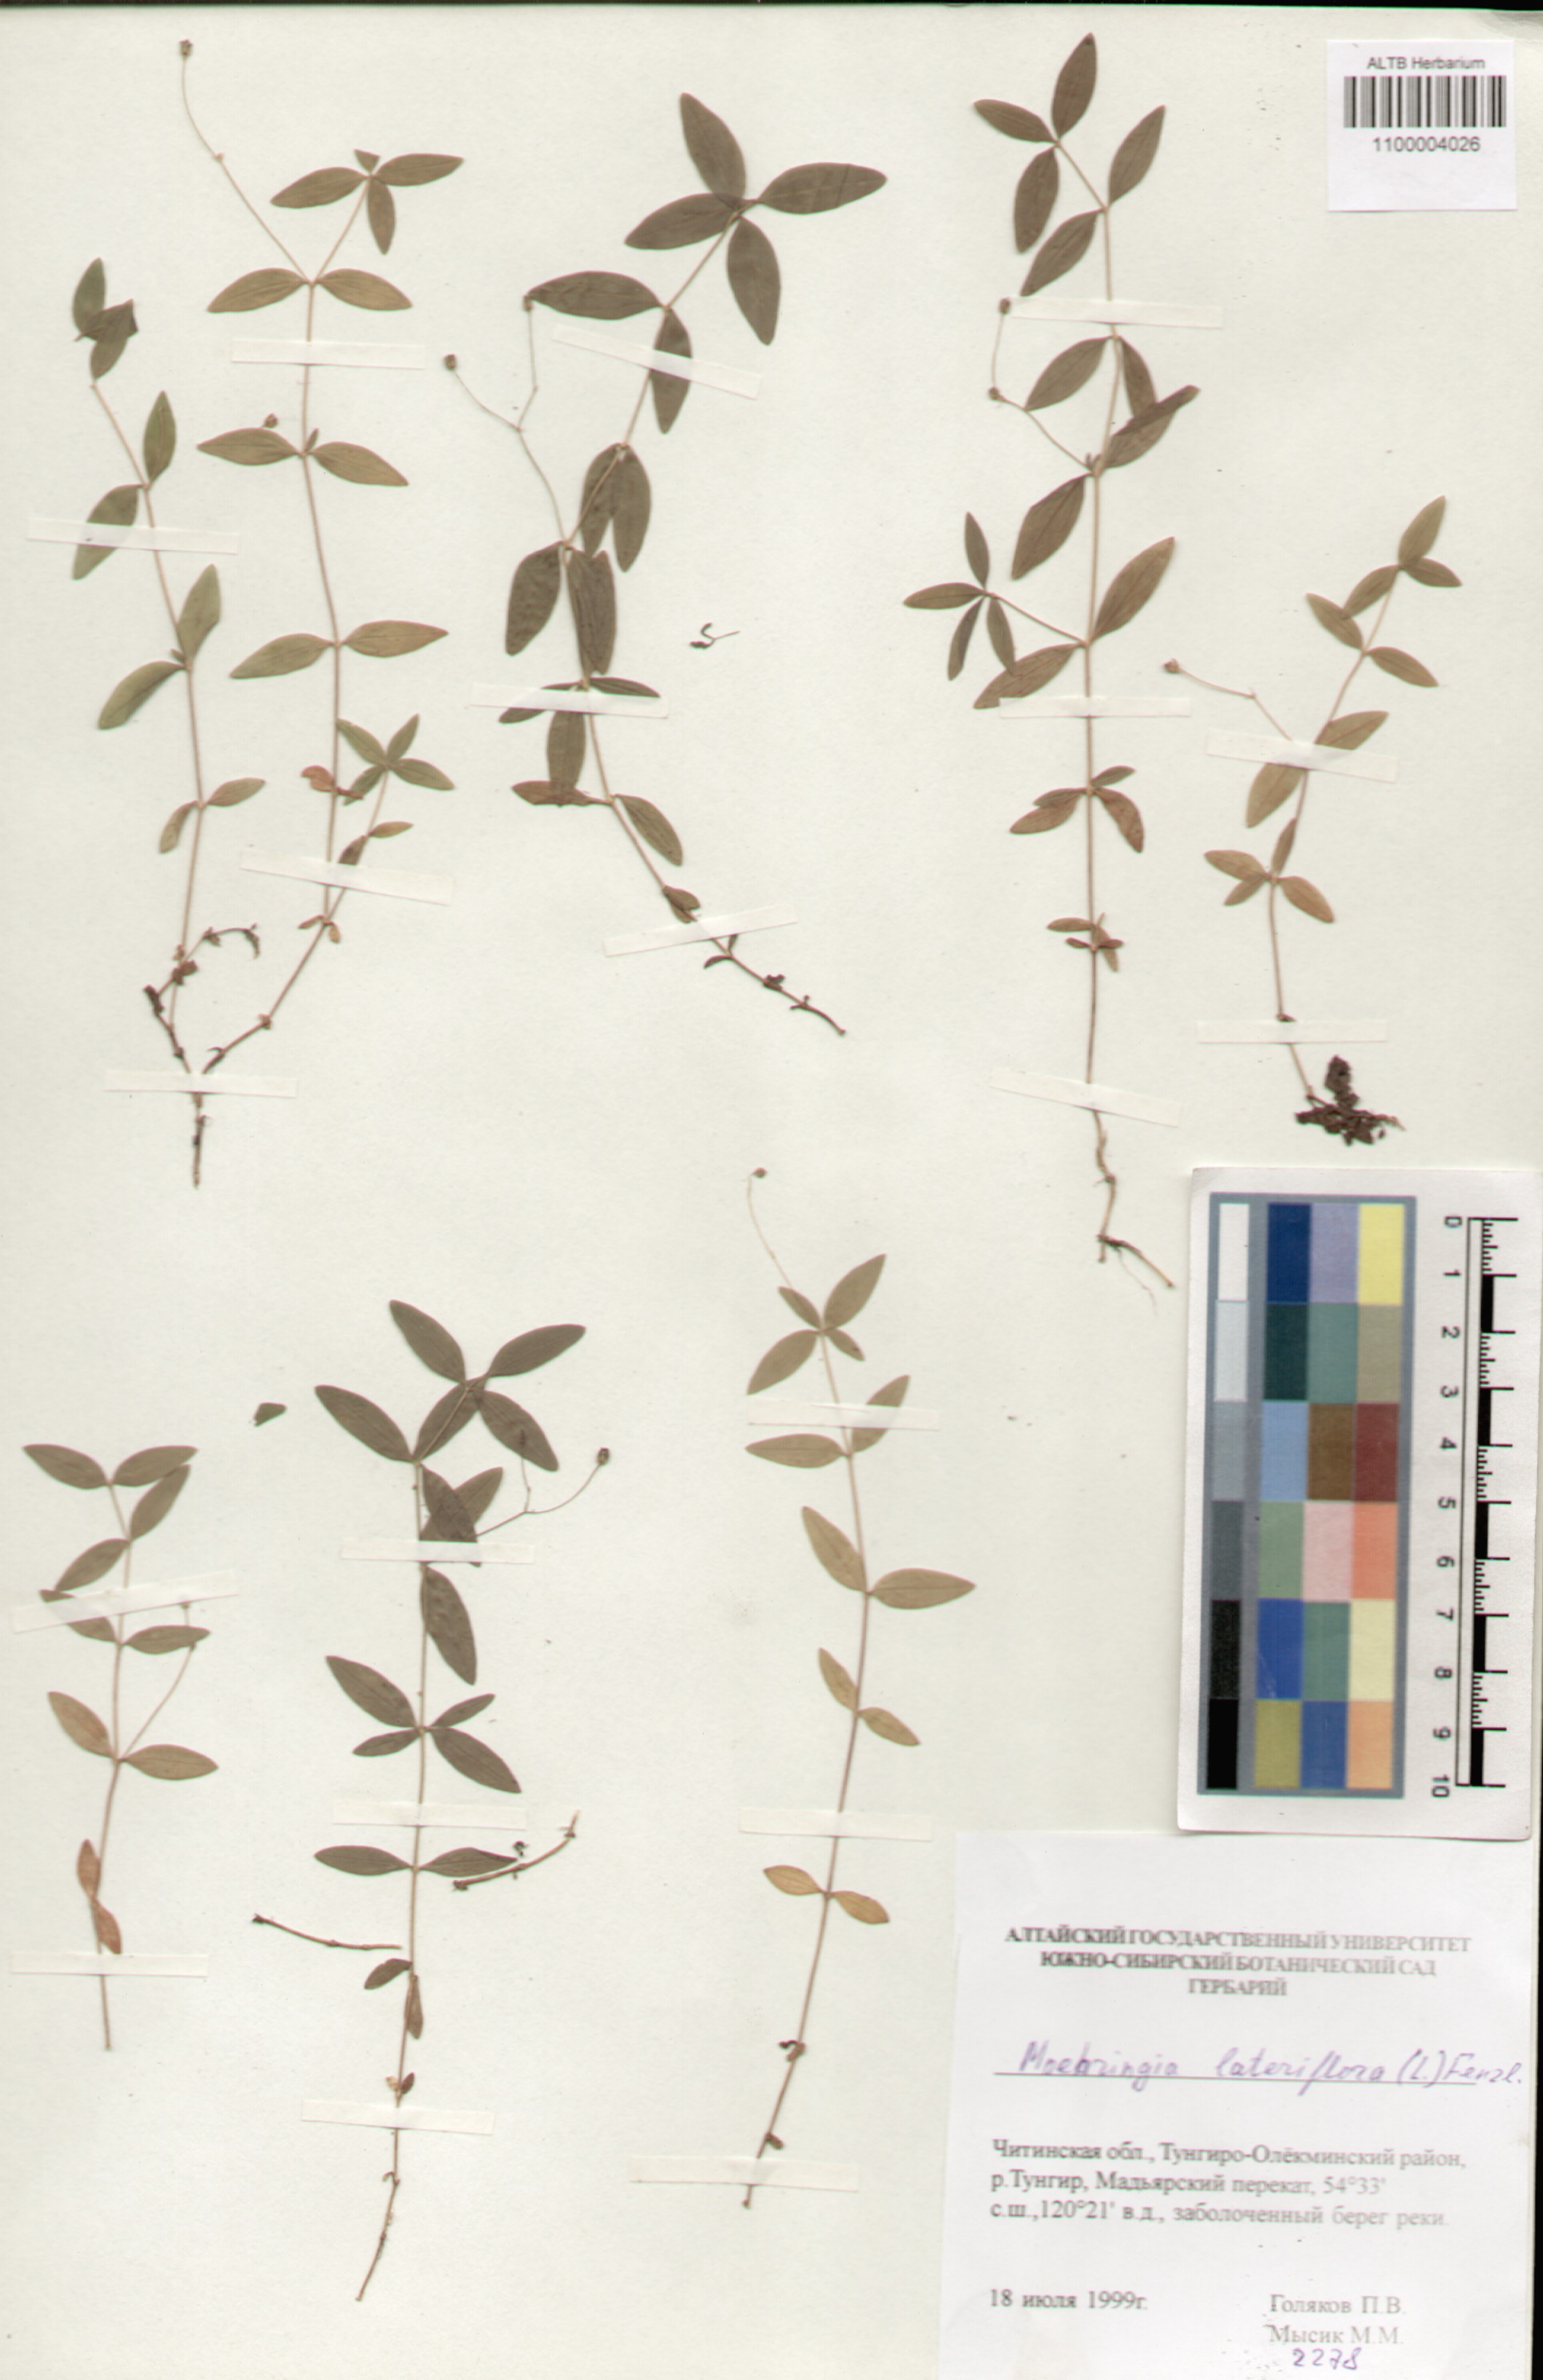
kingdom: Plantae
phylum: Tracheophyta
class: Magnoliopsida
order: Caryophyllales
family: Caryophyllaceae
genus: Moehringia
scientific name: Moehringia lateriflora
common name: Blunt-leaved sandwort
